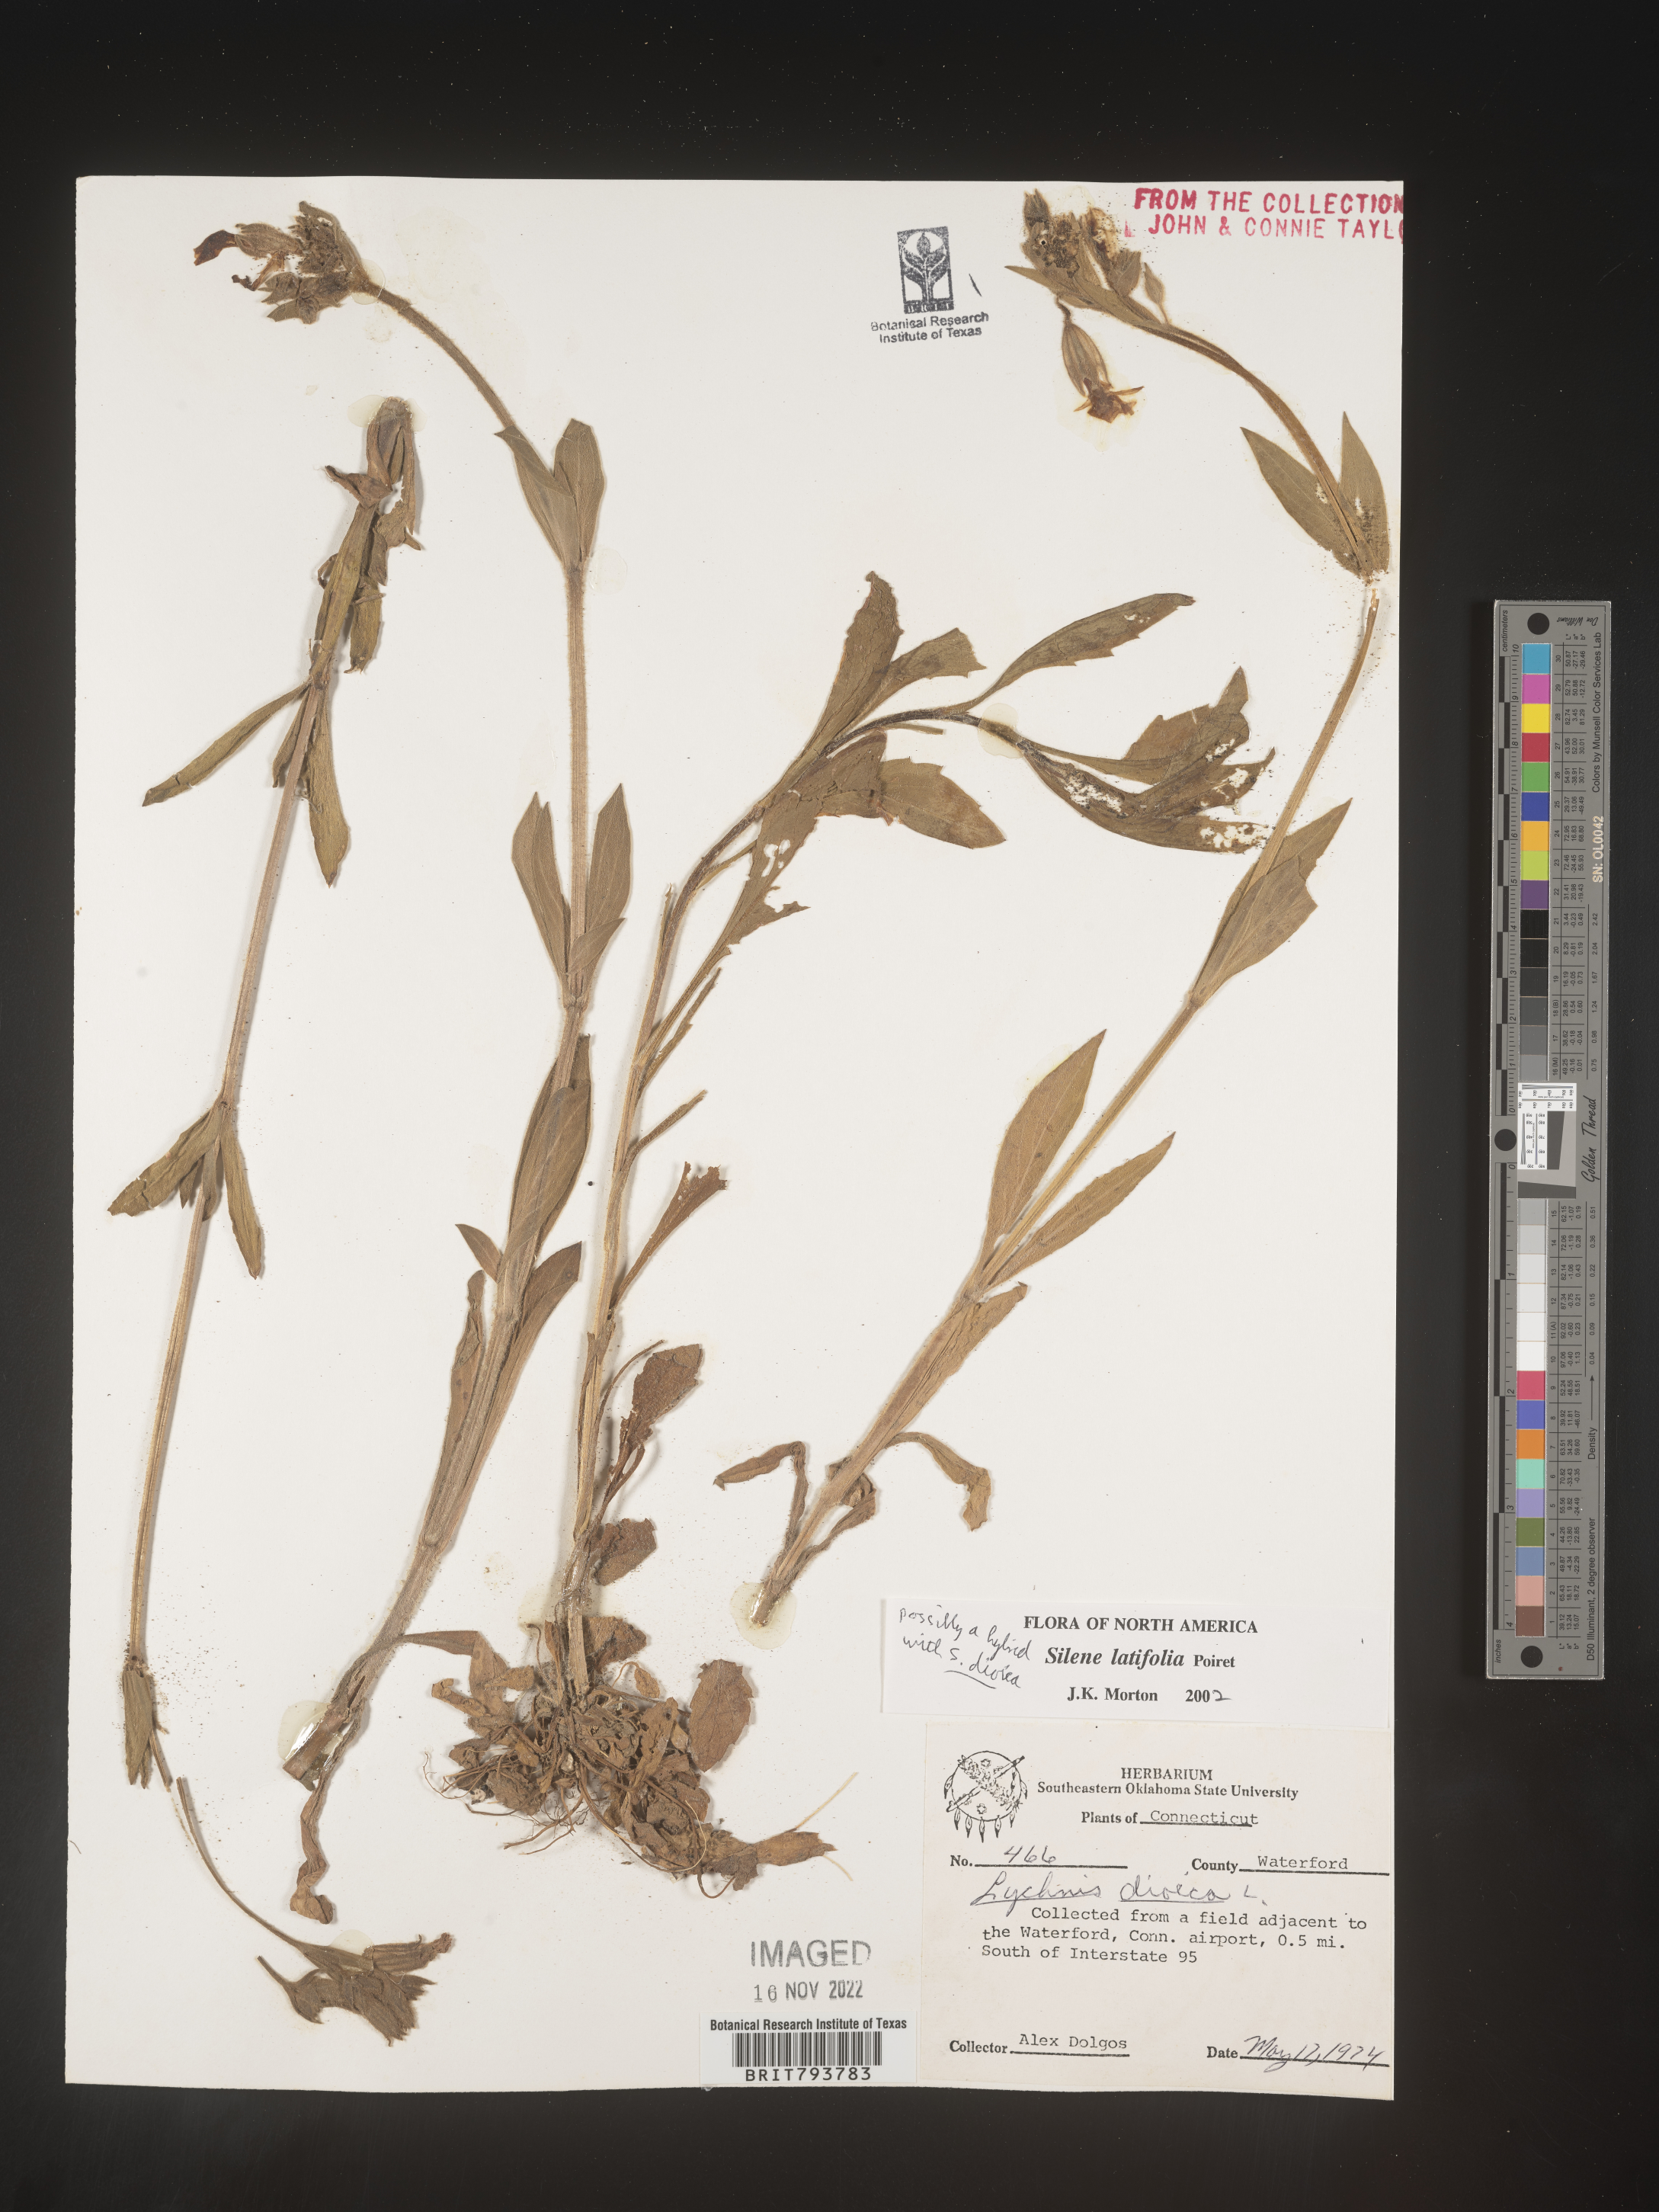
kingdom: Plantae
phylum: Tracheophyta
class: Magnoliopsida
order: Caryophyllales
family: Caryophyllaceae
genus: Silene
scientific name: Silene latifolia
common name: White campion
